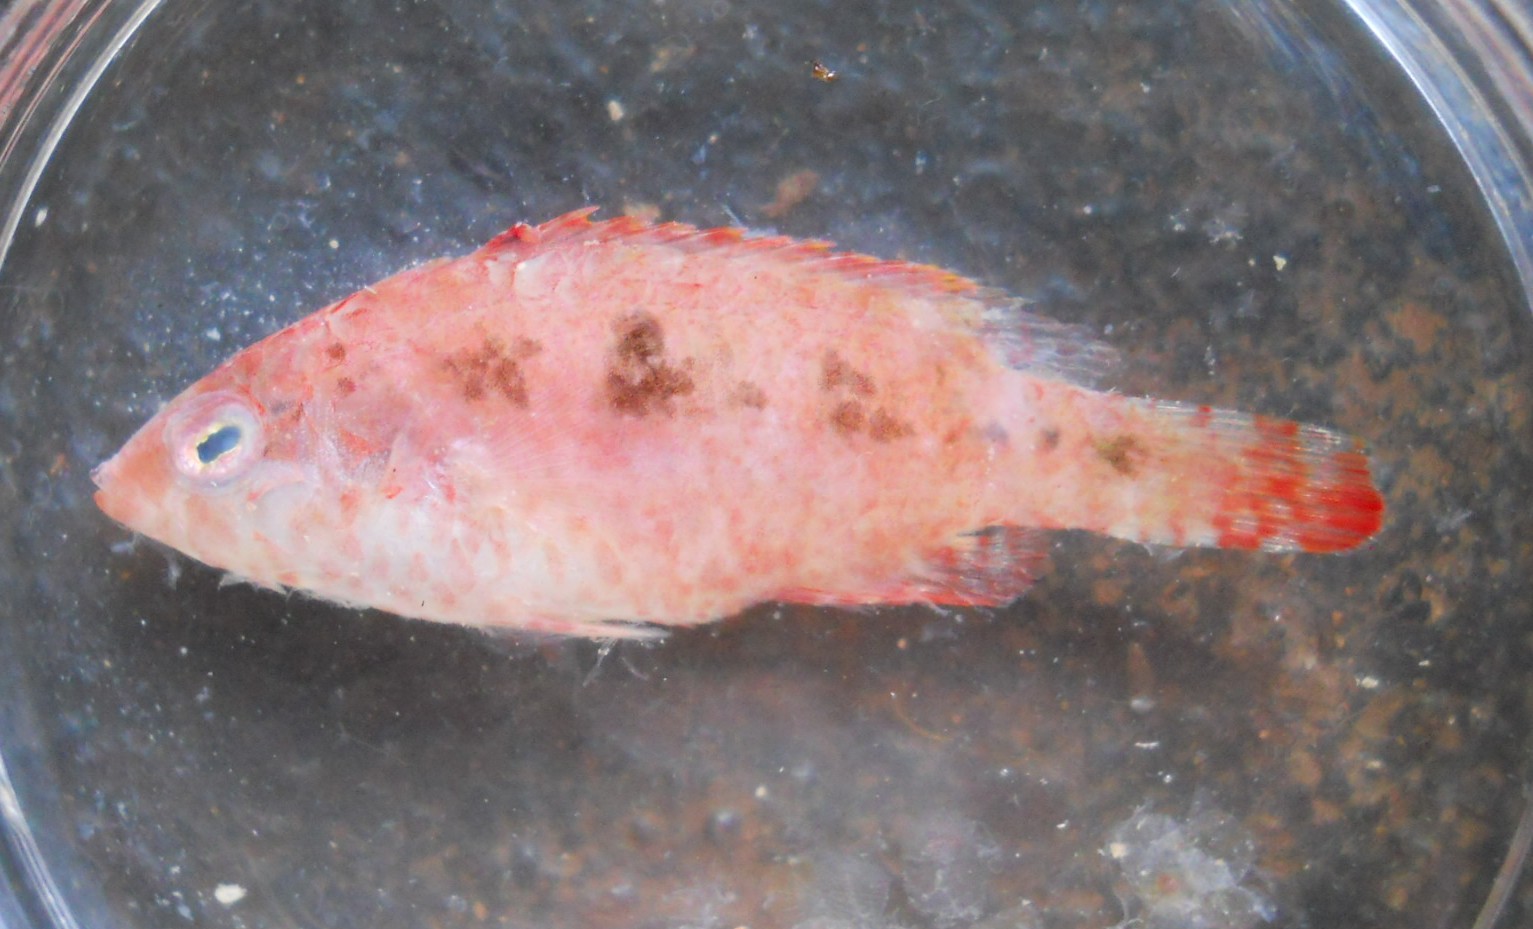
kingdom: Animalia
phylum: Chordata
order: Perciformes
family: Labridae
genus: Oxycheilinus
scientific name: Oxycheilinus bimaculatus
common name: Comettailed wrasse
